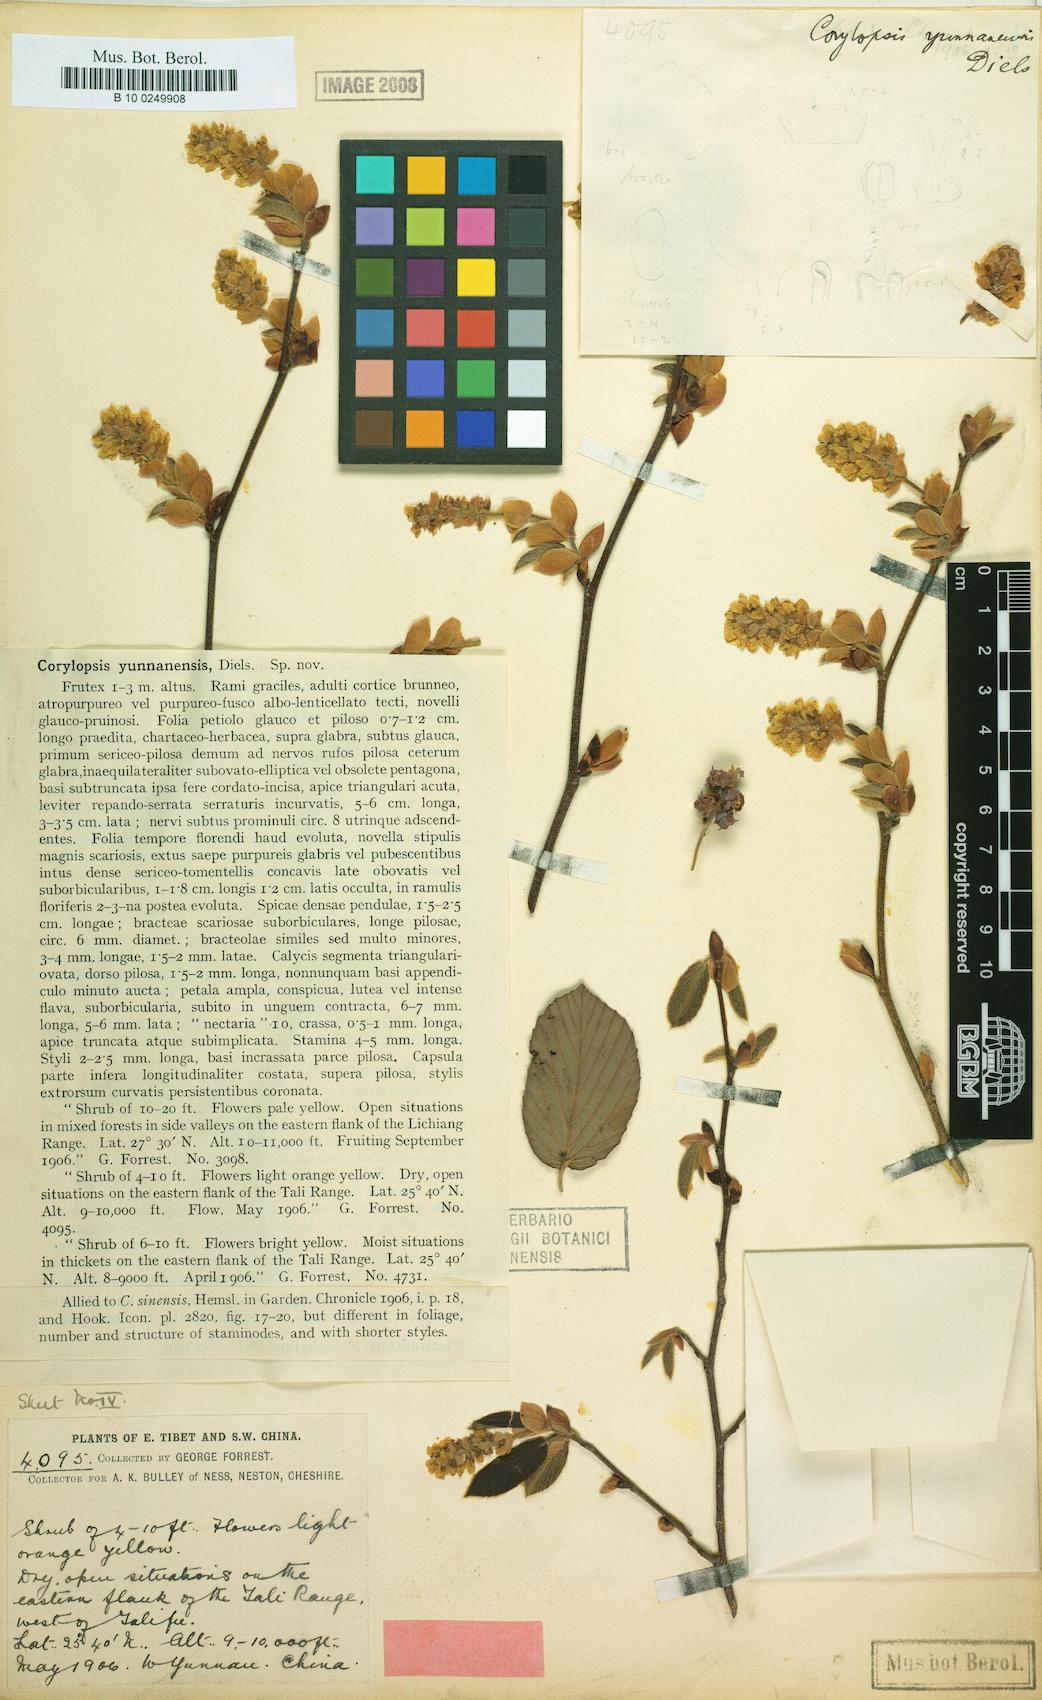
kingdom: Plantae
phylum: Tracheophyta
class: Magnoliopsida
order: Saxifragales
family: Hamamelidaceae
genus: Corylopsis
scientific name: Corylopsis yunnanensis
